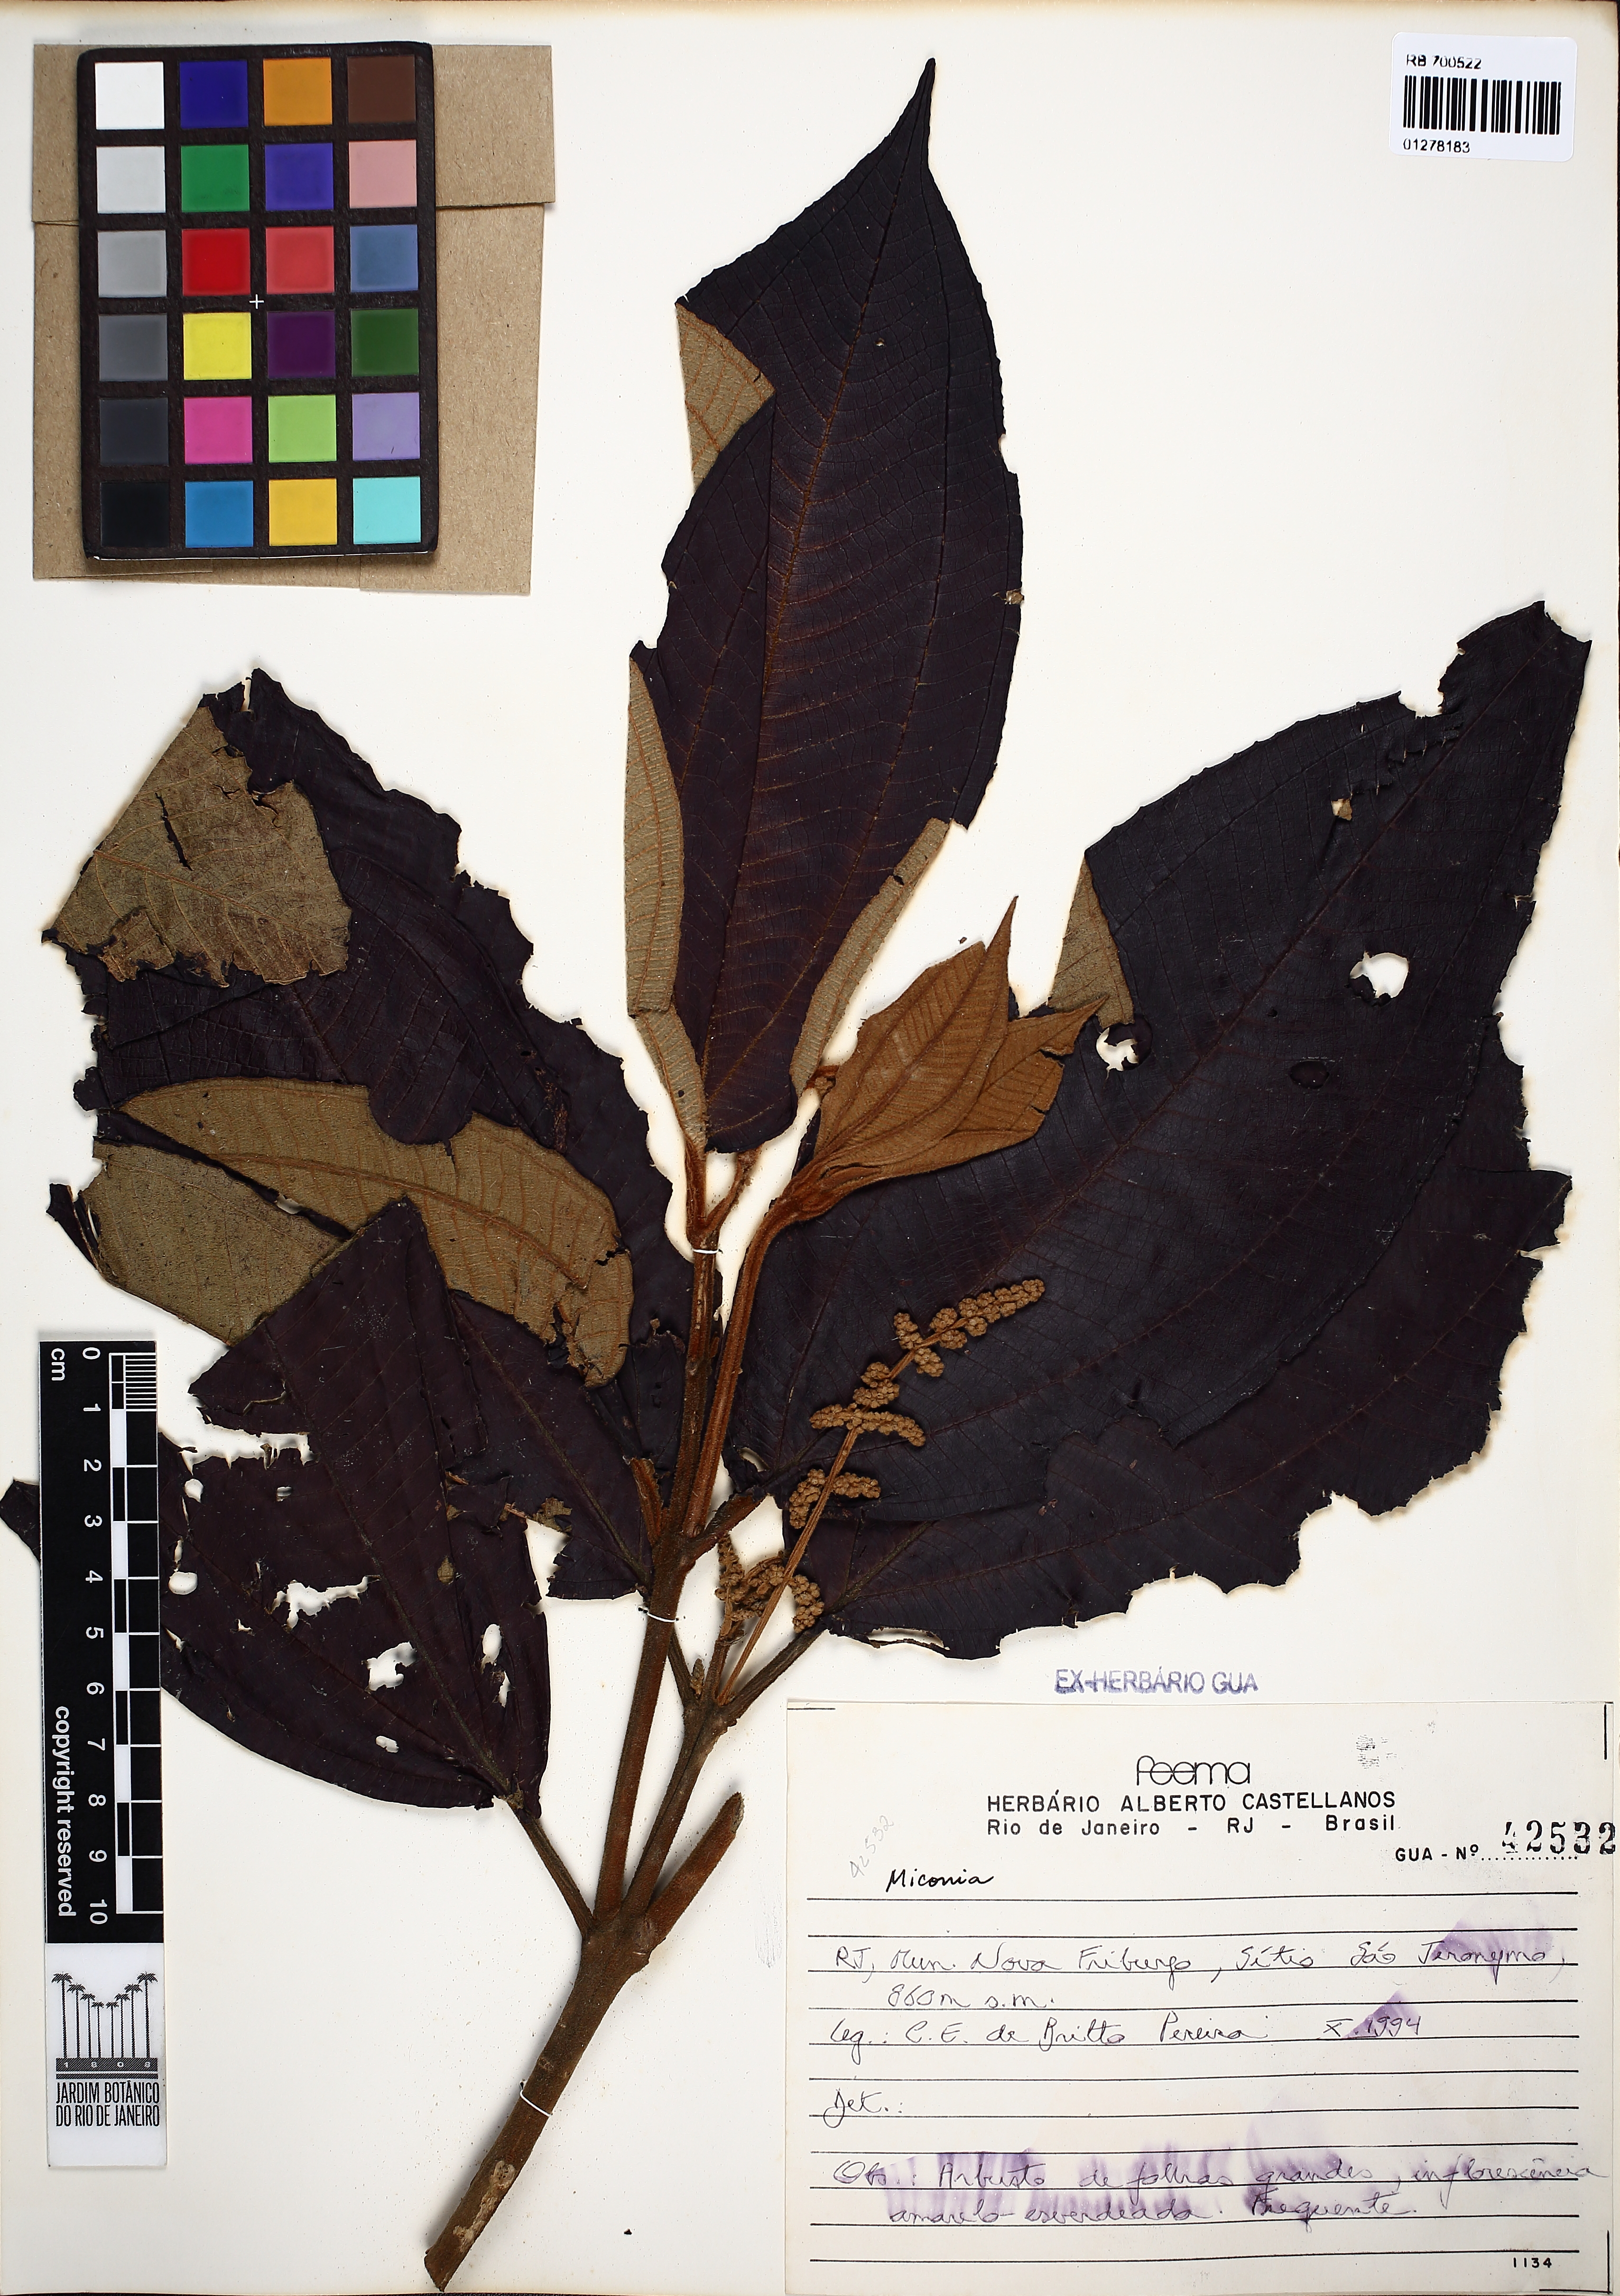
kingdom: Plantae
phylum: Tracheophyta
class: Magnoliopsida
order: Myrtales
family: Melastomataceae
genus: Miconia
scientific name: Miconia
